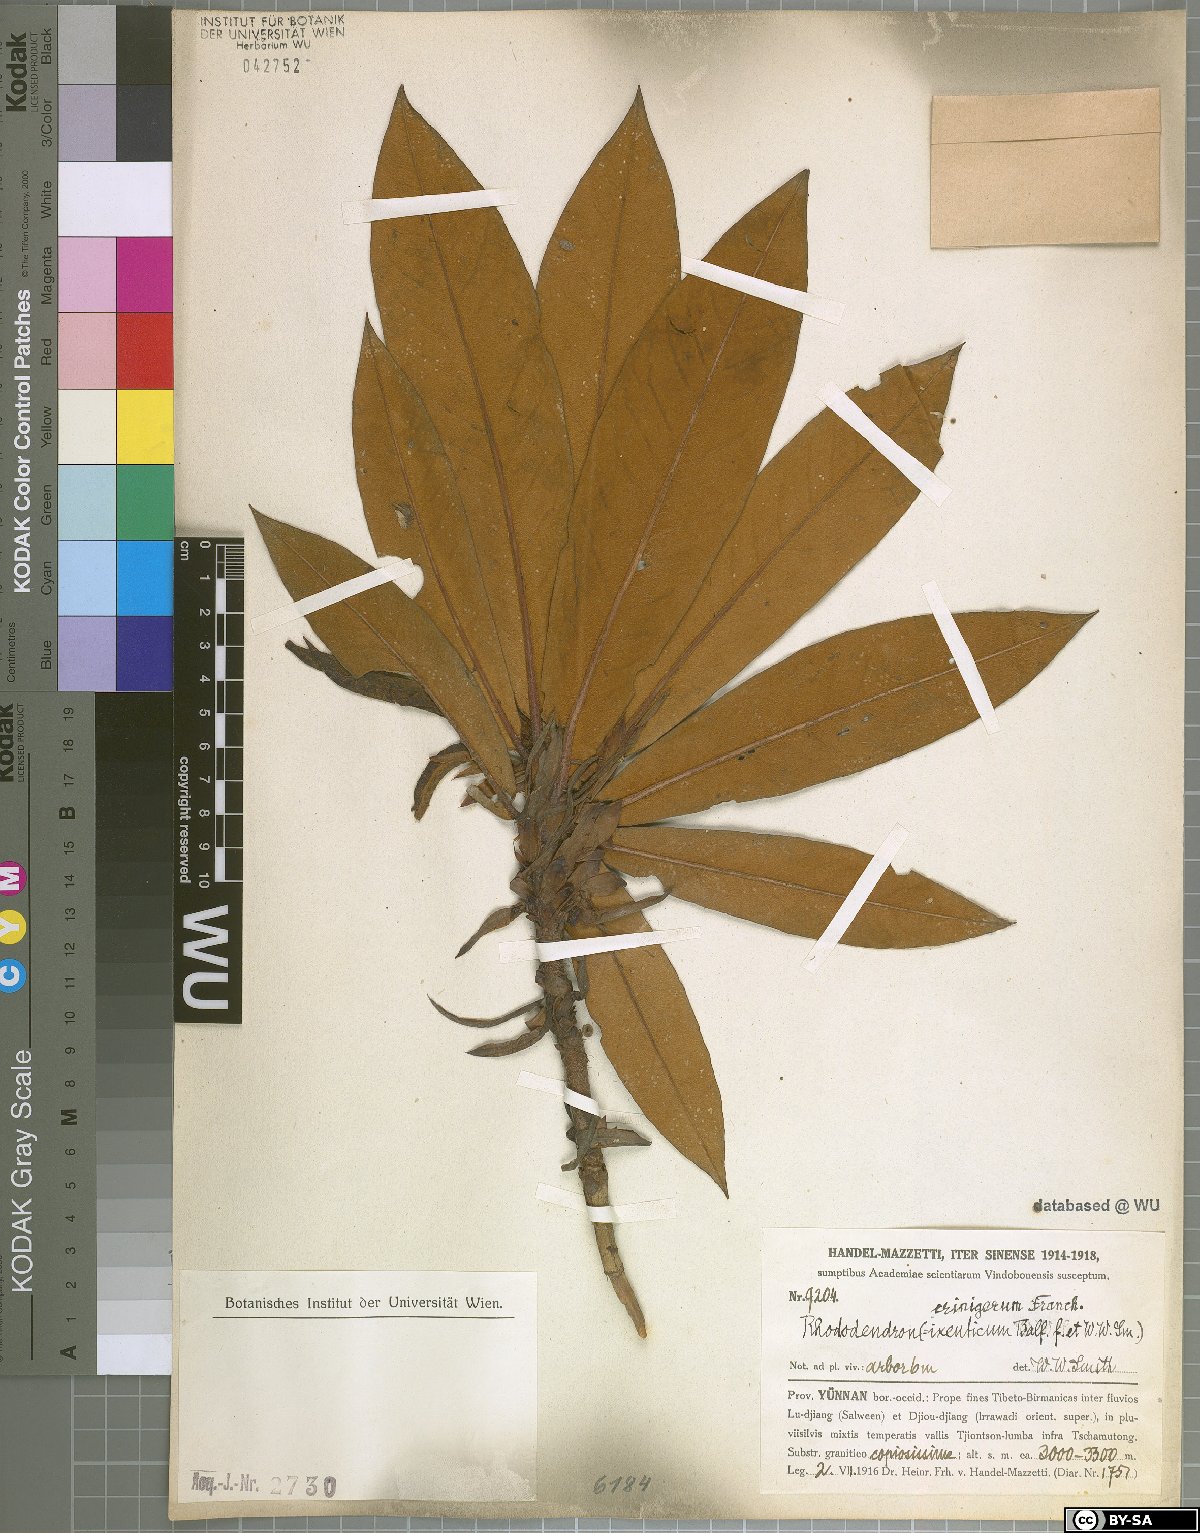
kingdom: Plantae
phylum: Tracheophyta
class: Magnoliopsida
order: Ericales
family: Ericaceae
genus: Rhododendron
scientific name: Rhododendron crinigerum
